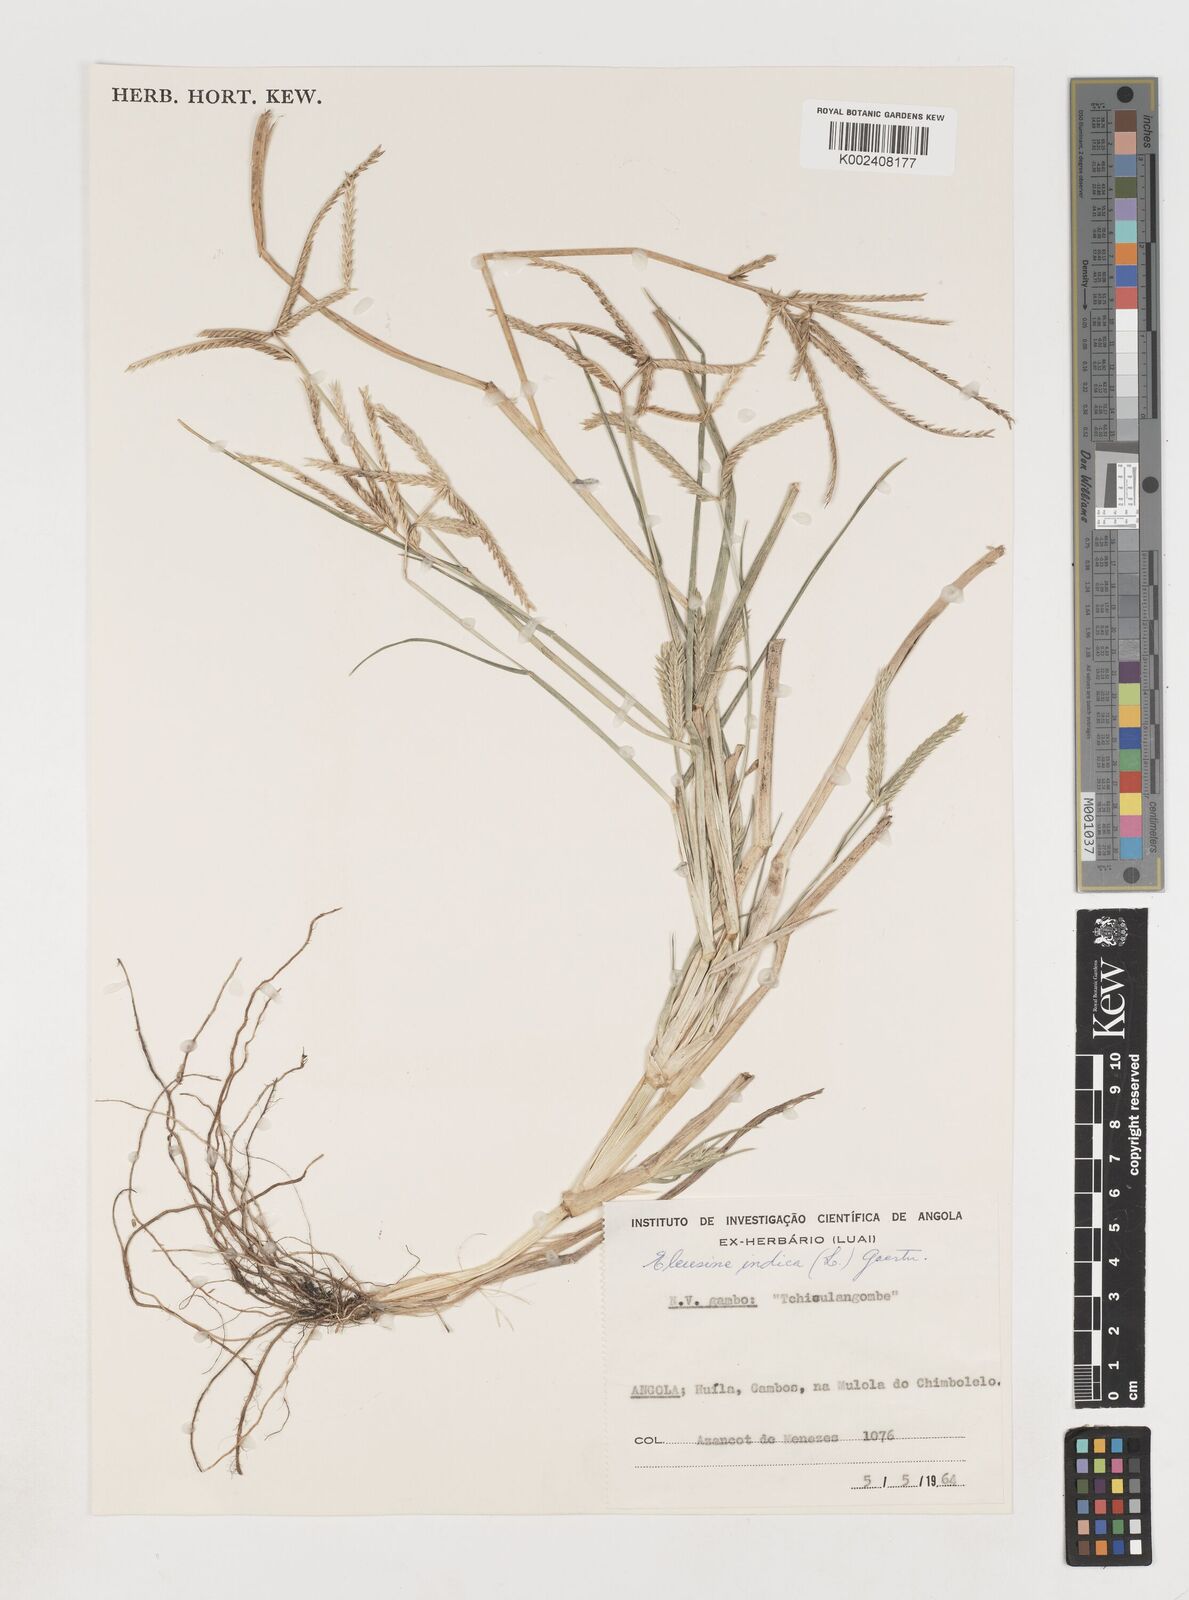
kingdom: Plantae
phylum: Tracheophyta
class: Liliopsida
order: Poales
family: Poaceae
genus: Eleusine
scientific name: Eleusine africana
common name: Wild african finger millet
